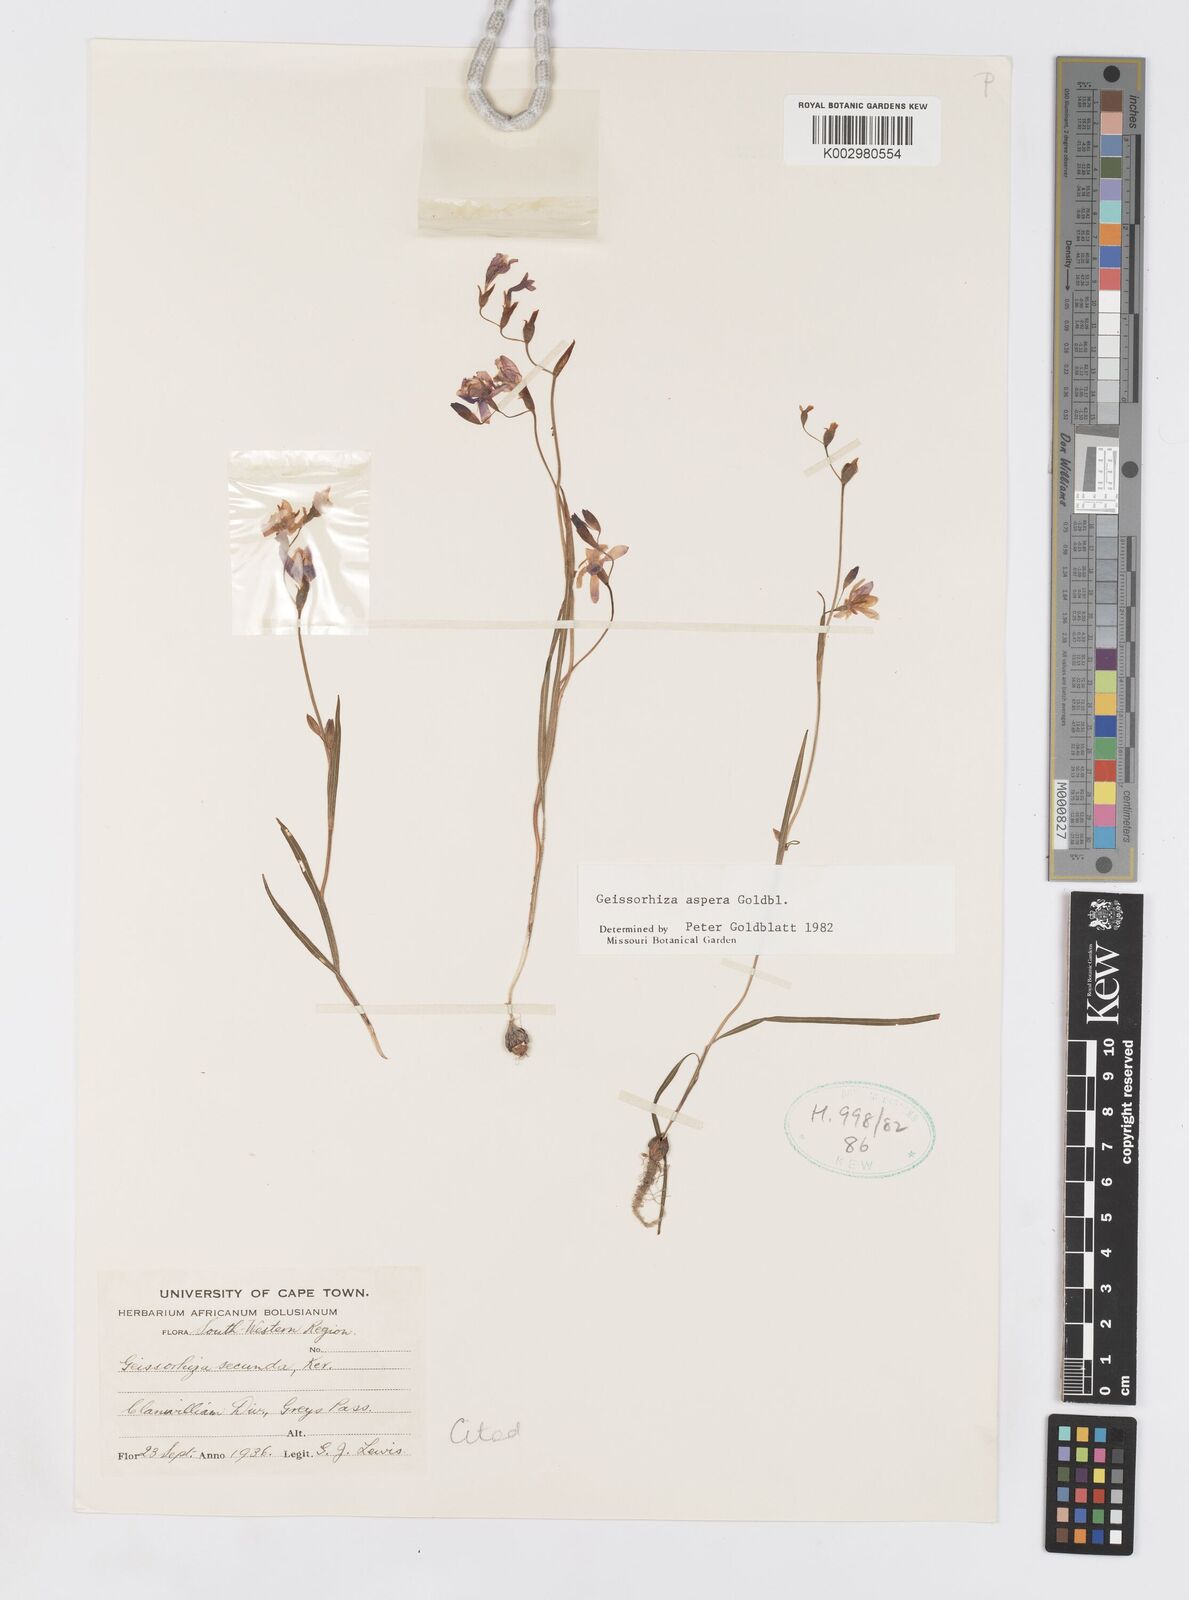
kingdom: Plantae
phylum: Tracheophyta
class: Liliopsida
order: Asparagales
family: Iridaceae
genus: Geissorhiza
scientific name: Geissorhiza aspera
